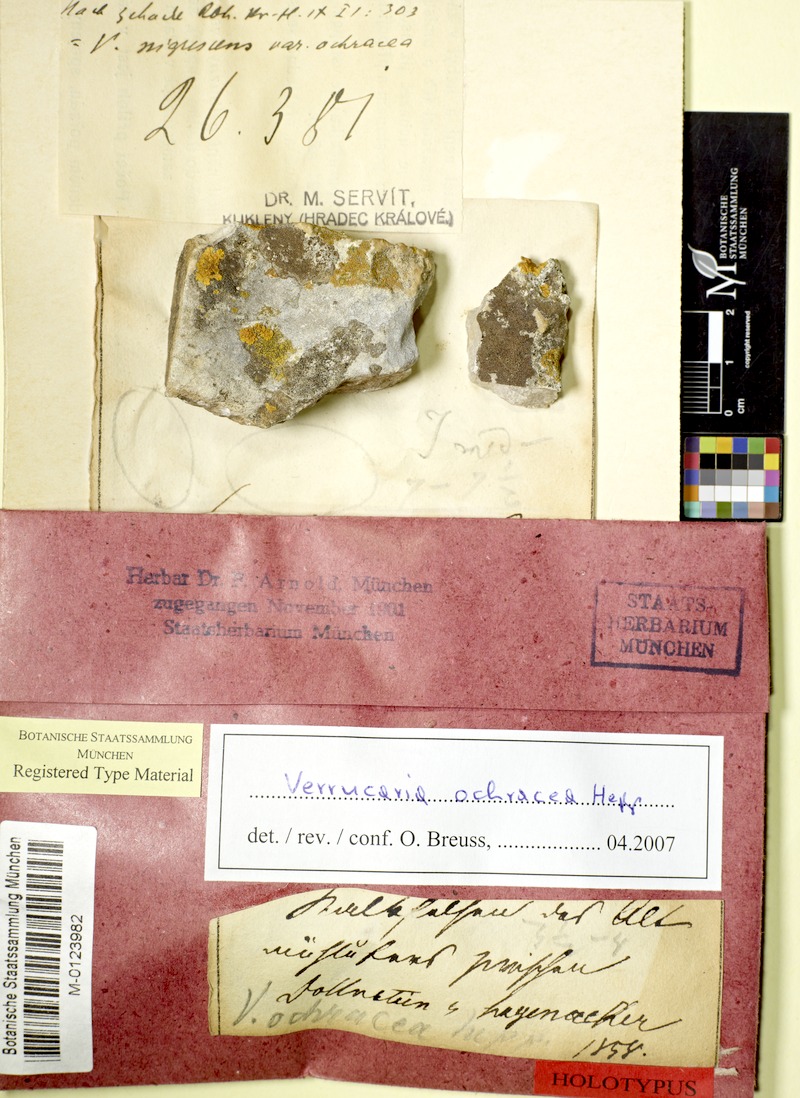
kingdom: Fungi
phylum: Ascomycota
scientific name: Ascomycota
